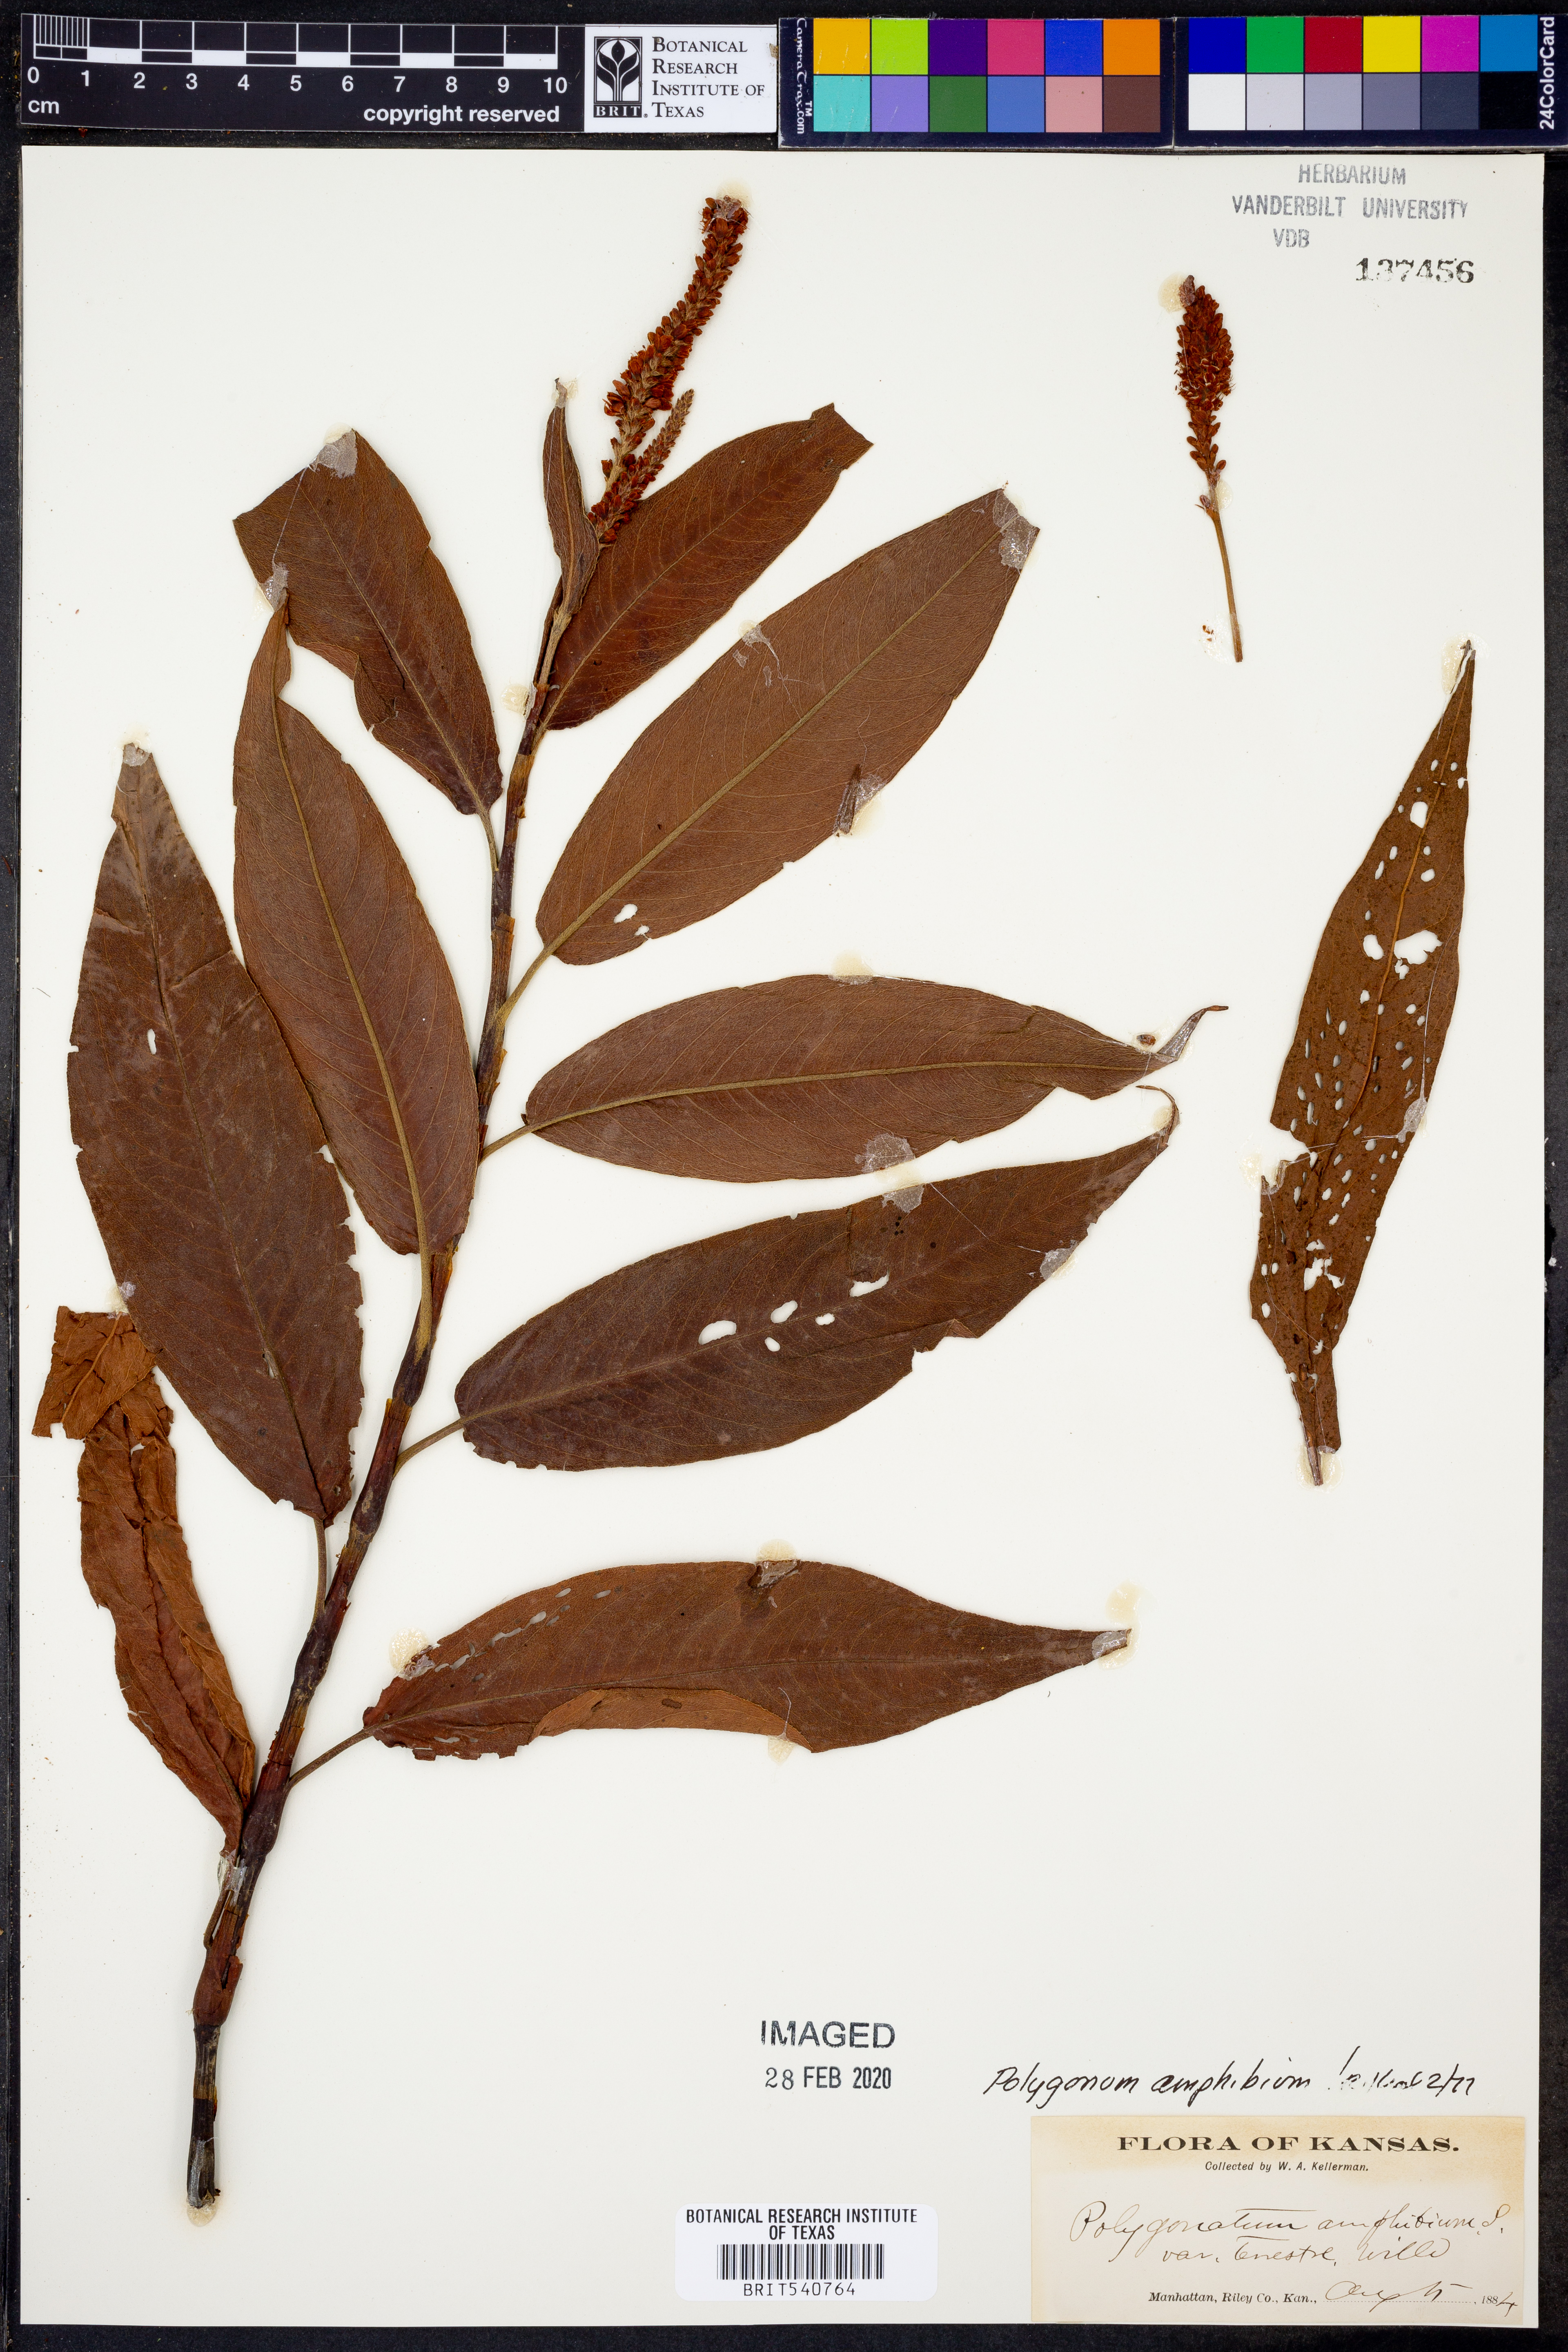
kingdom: Plantae
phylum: Tracheophyta
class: Magnoliopsida
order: Caryophyllales
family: Polygonaceae
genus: Persicaria
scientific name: Persicaria amphibia
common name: Amphibious bistort
